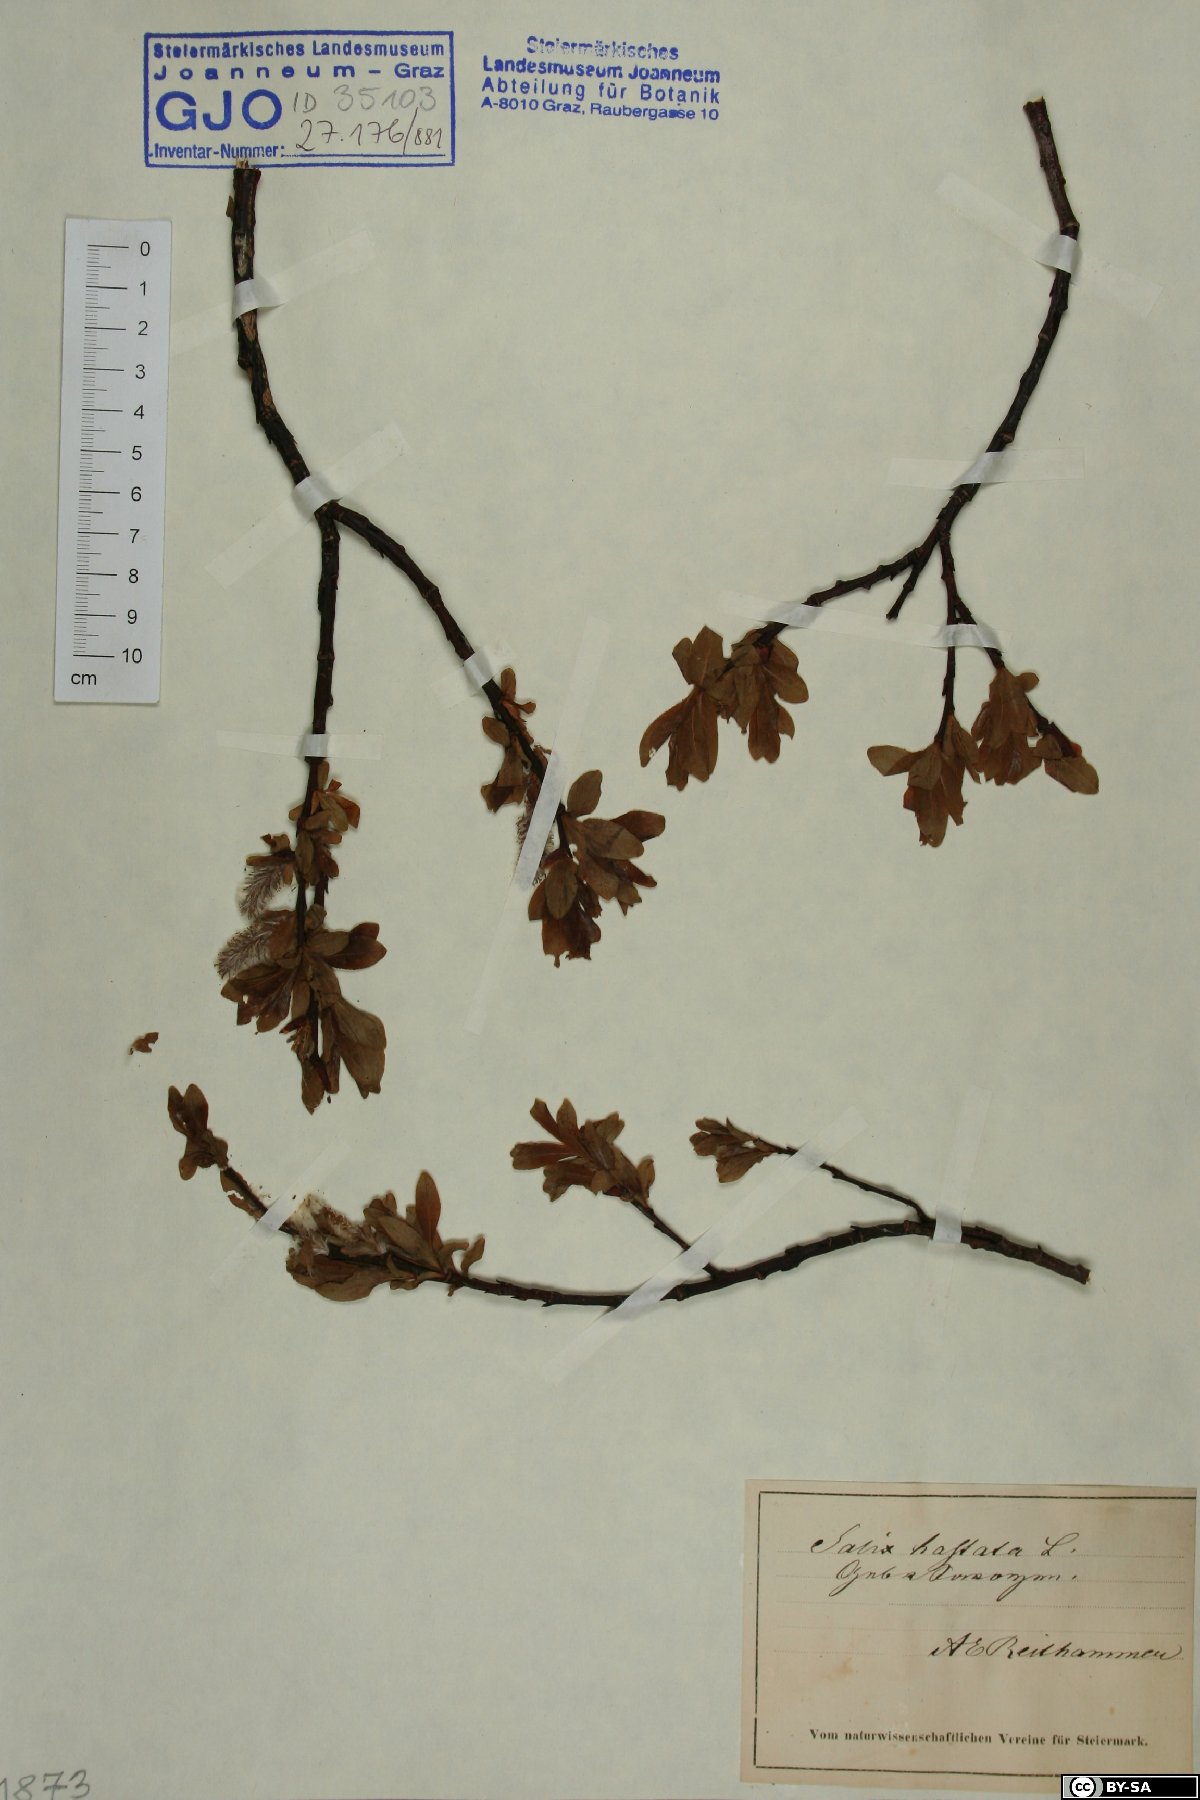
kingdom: Plantae
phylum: Tracheophyta
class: Magnoliopsida
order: Malpighiales
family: Salicaceae
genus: Salix
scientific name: Salix hastata
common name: Halberd willow
